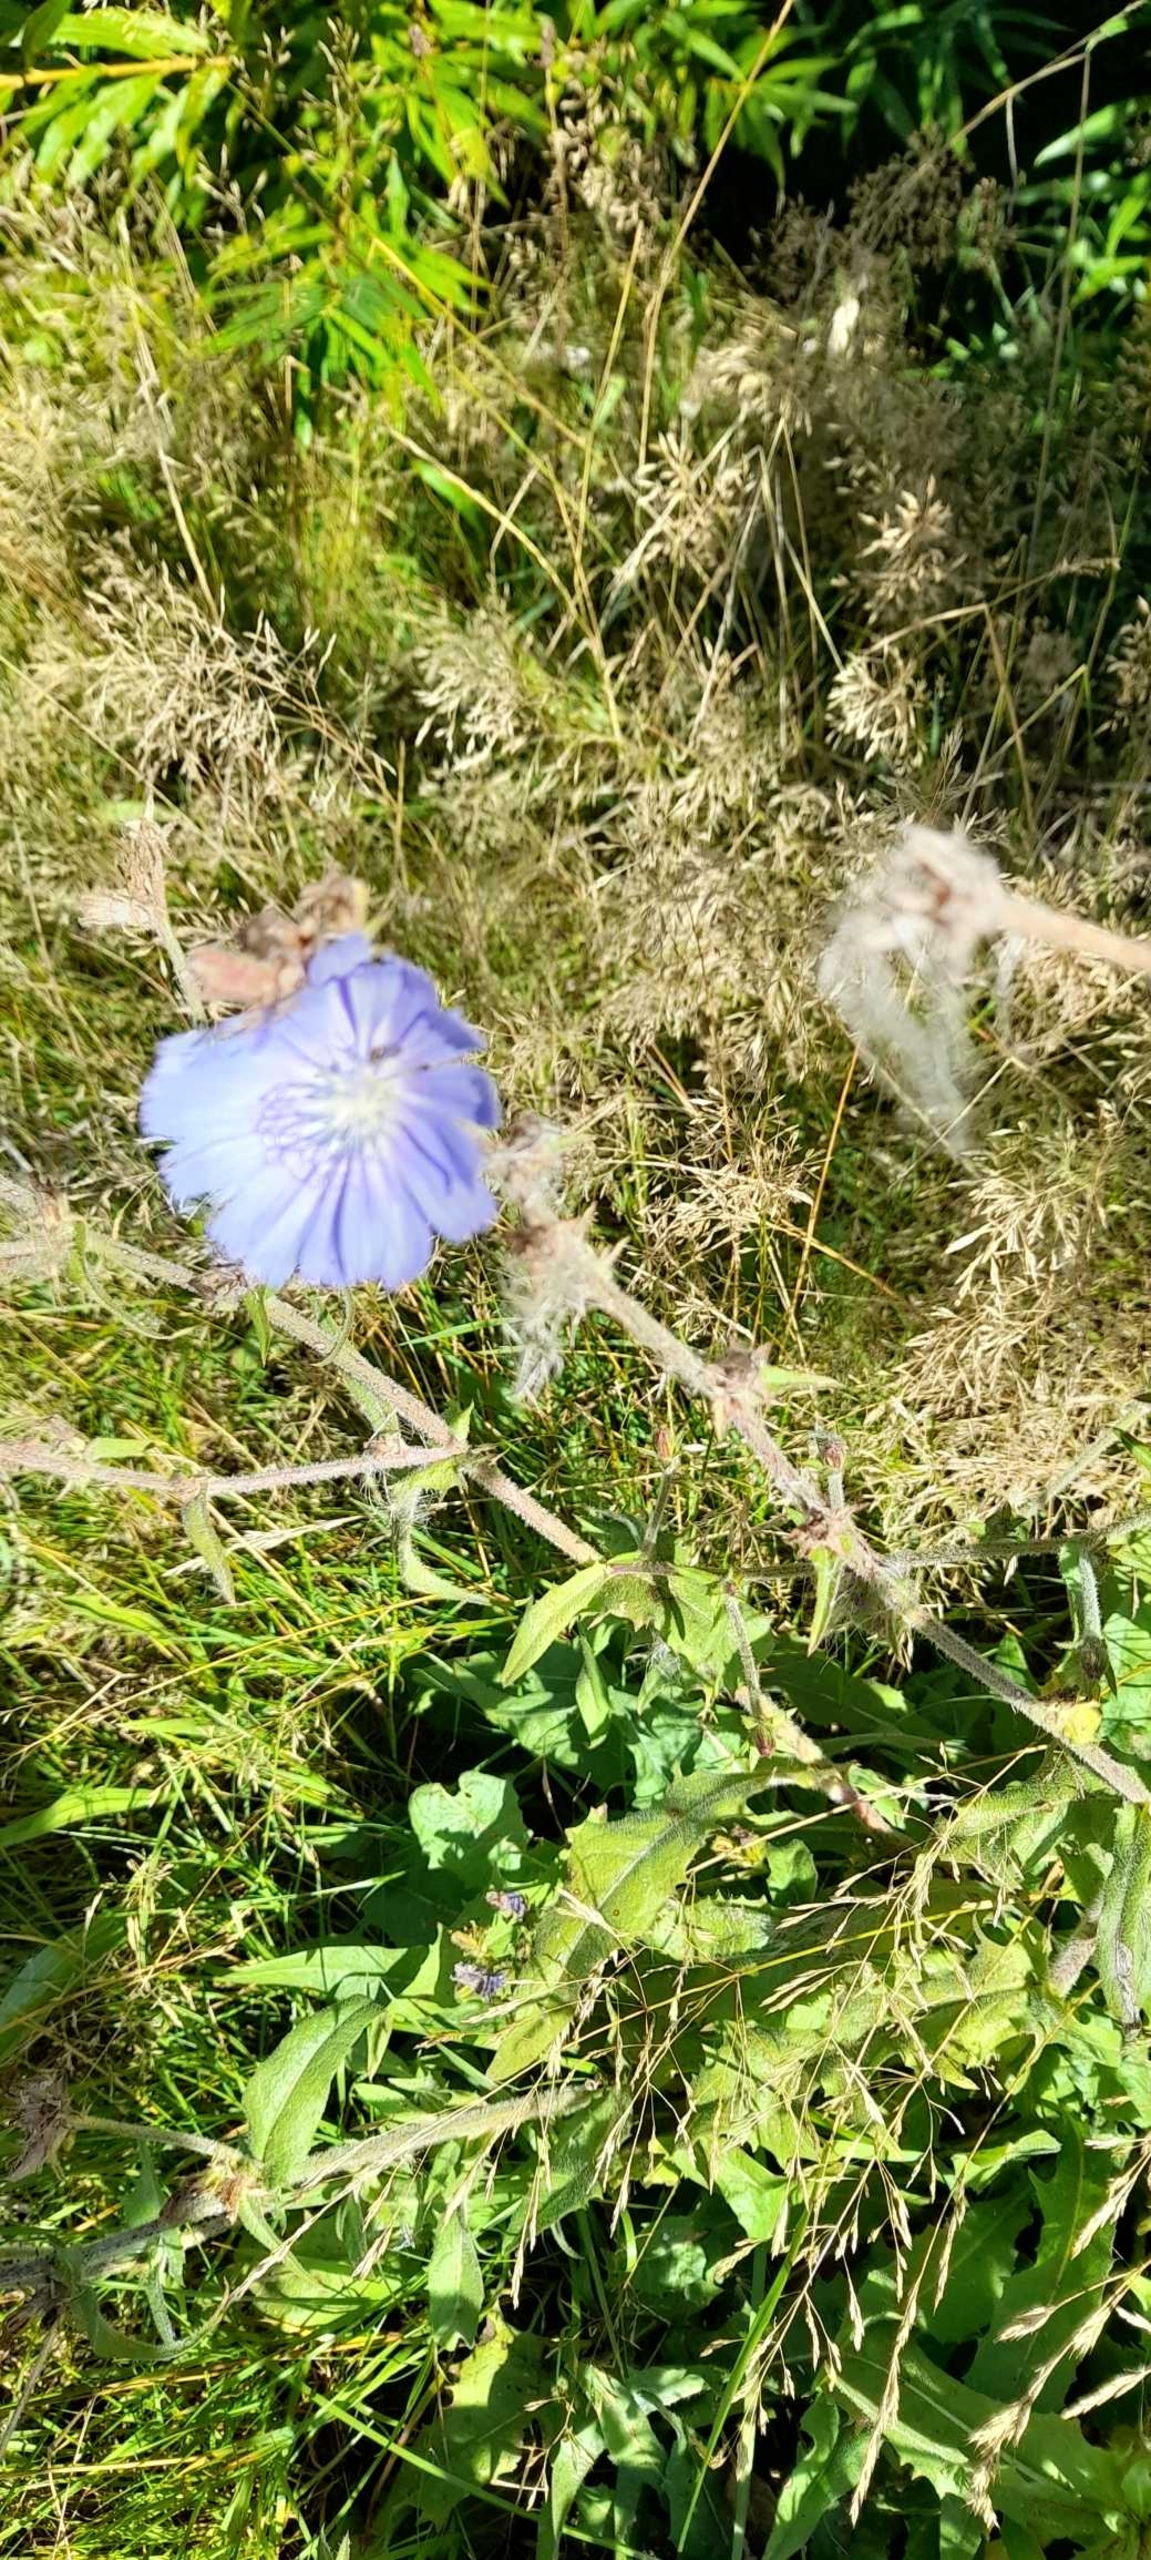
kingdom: Plantae
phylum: Tracheophyta
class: Magnoliopsida
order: Asterales
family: Asteraceae
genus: Cichorium
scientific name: Cichorium intybus
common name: Cikorie
